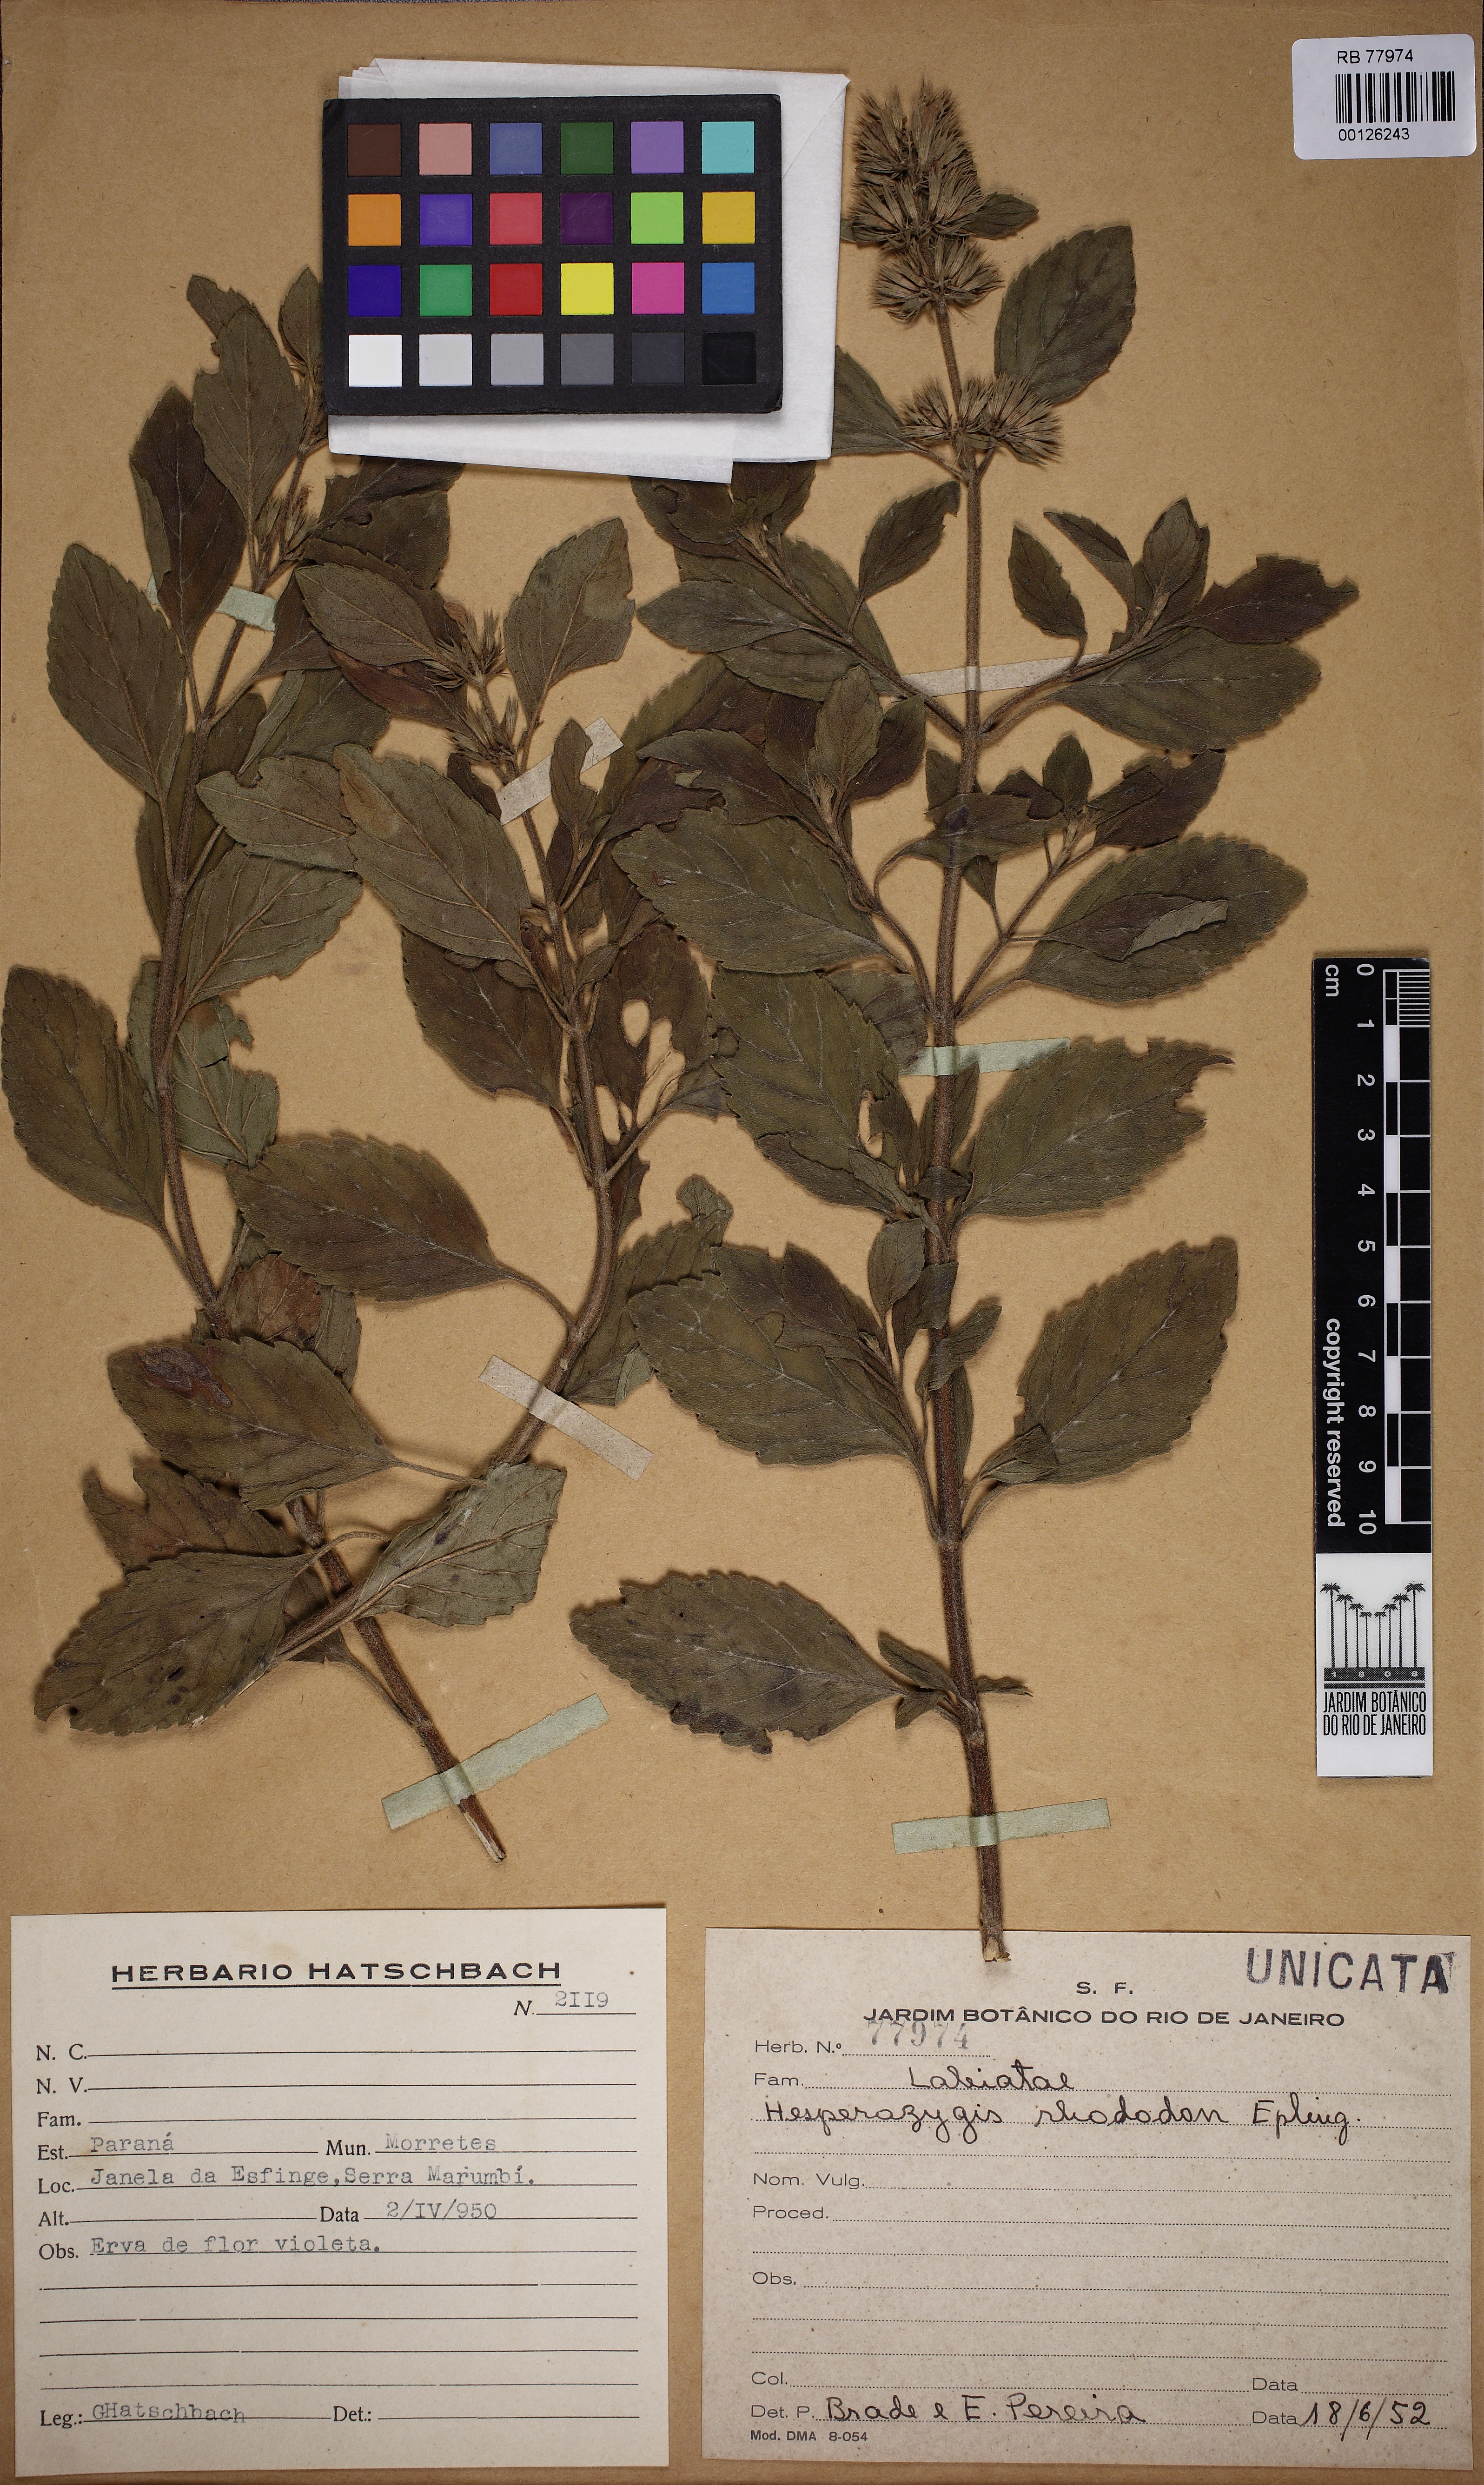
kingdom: Plantae
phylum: Tracheophyta
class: Magnoliopsida
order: Lamiales
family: Lamiaceae
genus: Hesperozygis
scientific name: Hesperozygis rhododon
